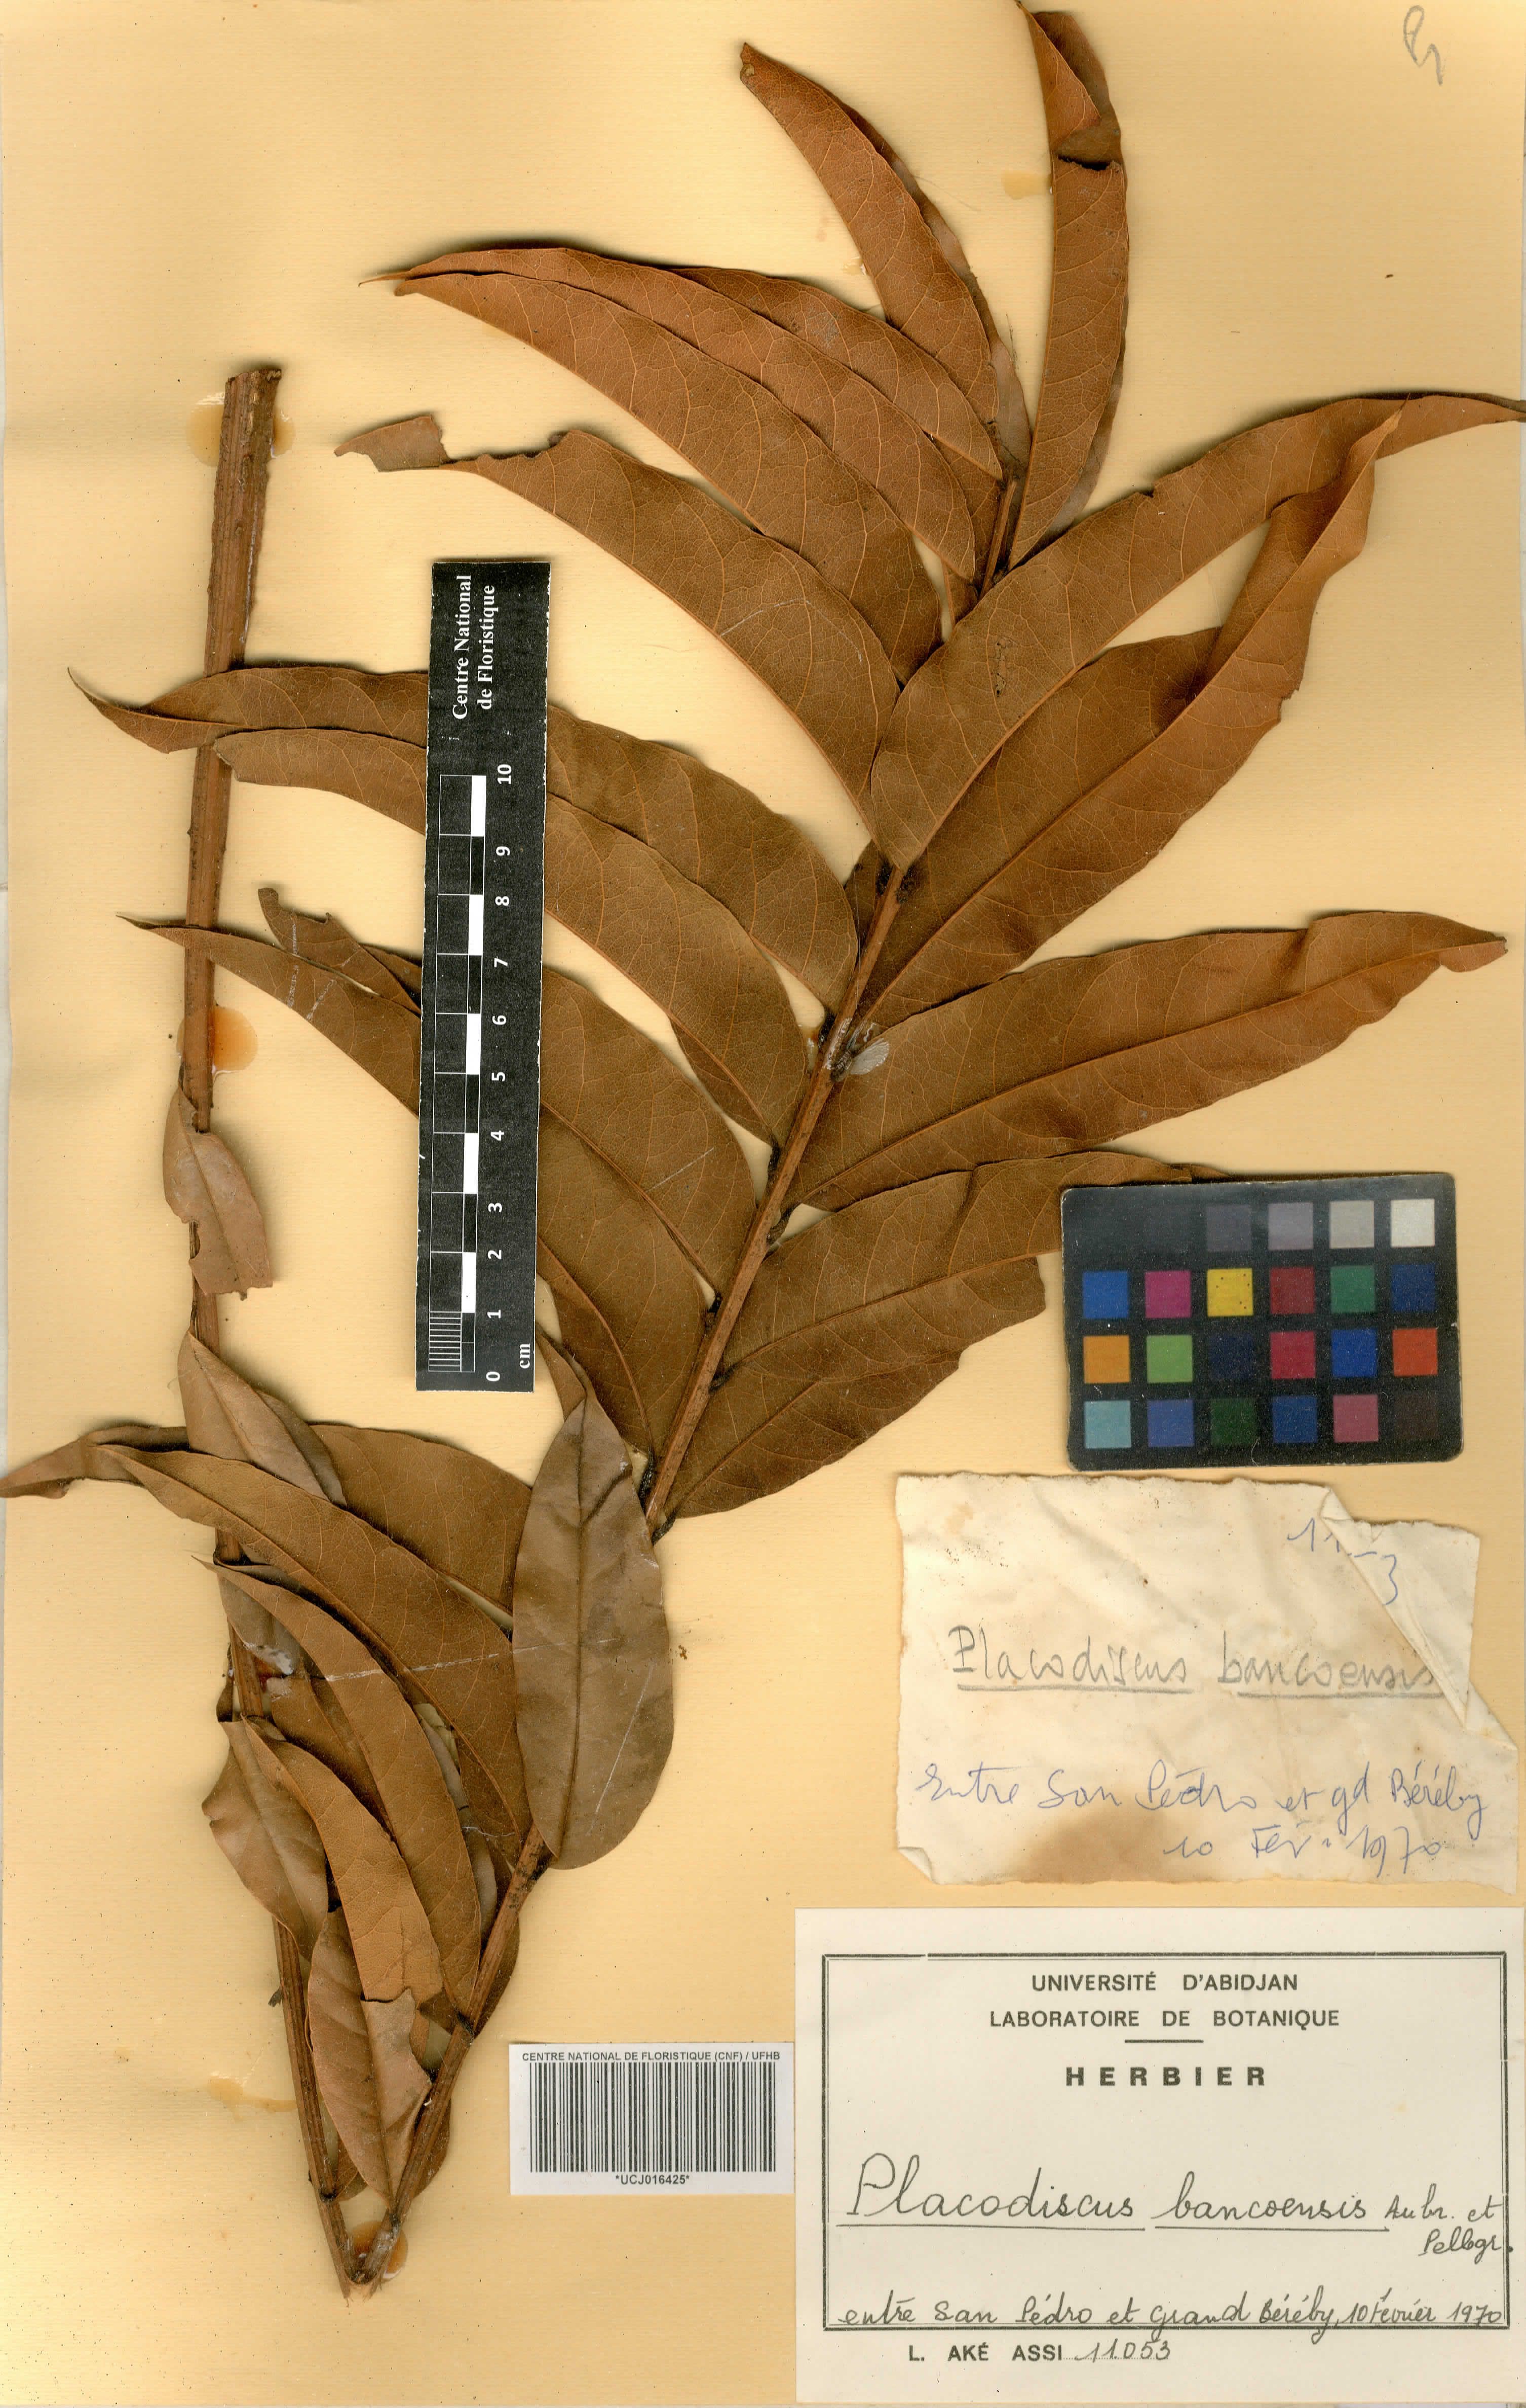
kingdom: Plantae
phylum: Tracheophyta
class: Magnoliopsida
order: Sapindales
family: Sapindaceae
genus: Placodiscus
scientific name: Placodiscus bancoensis
